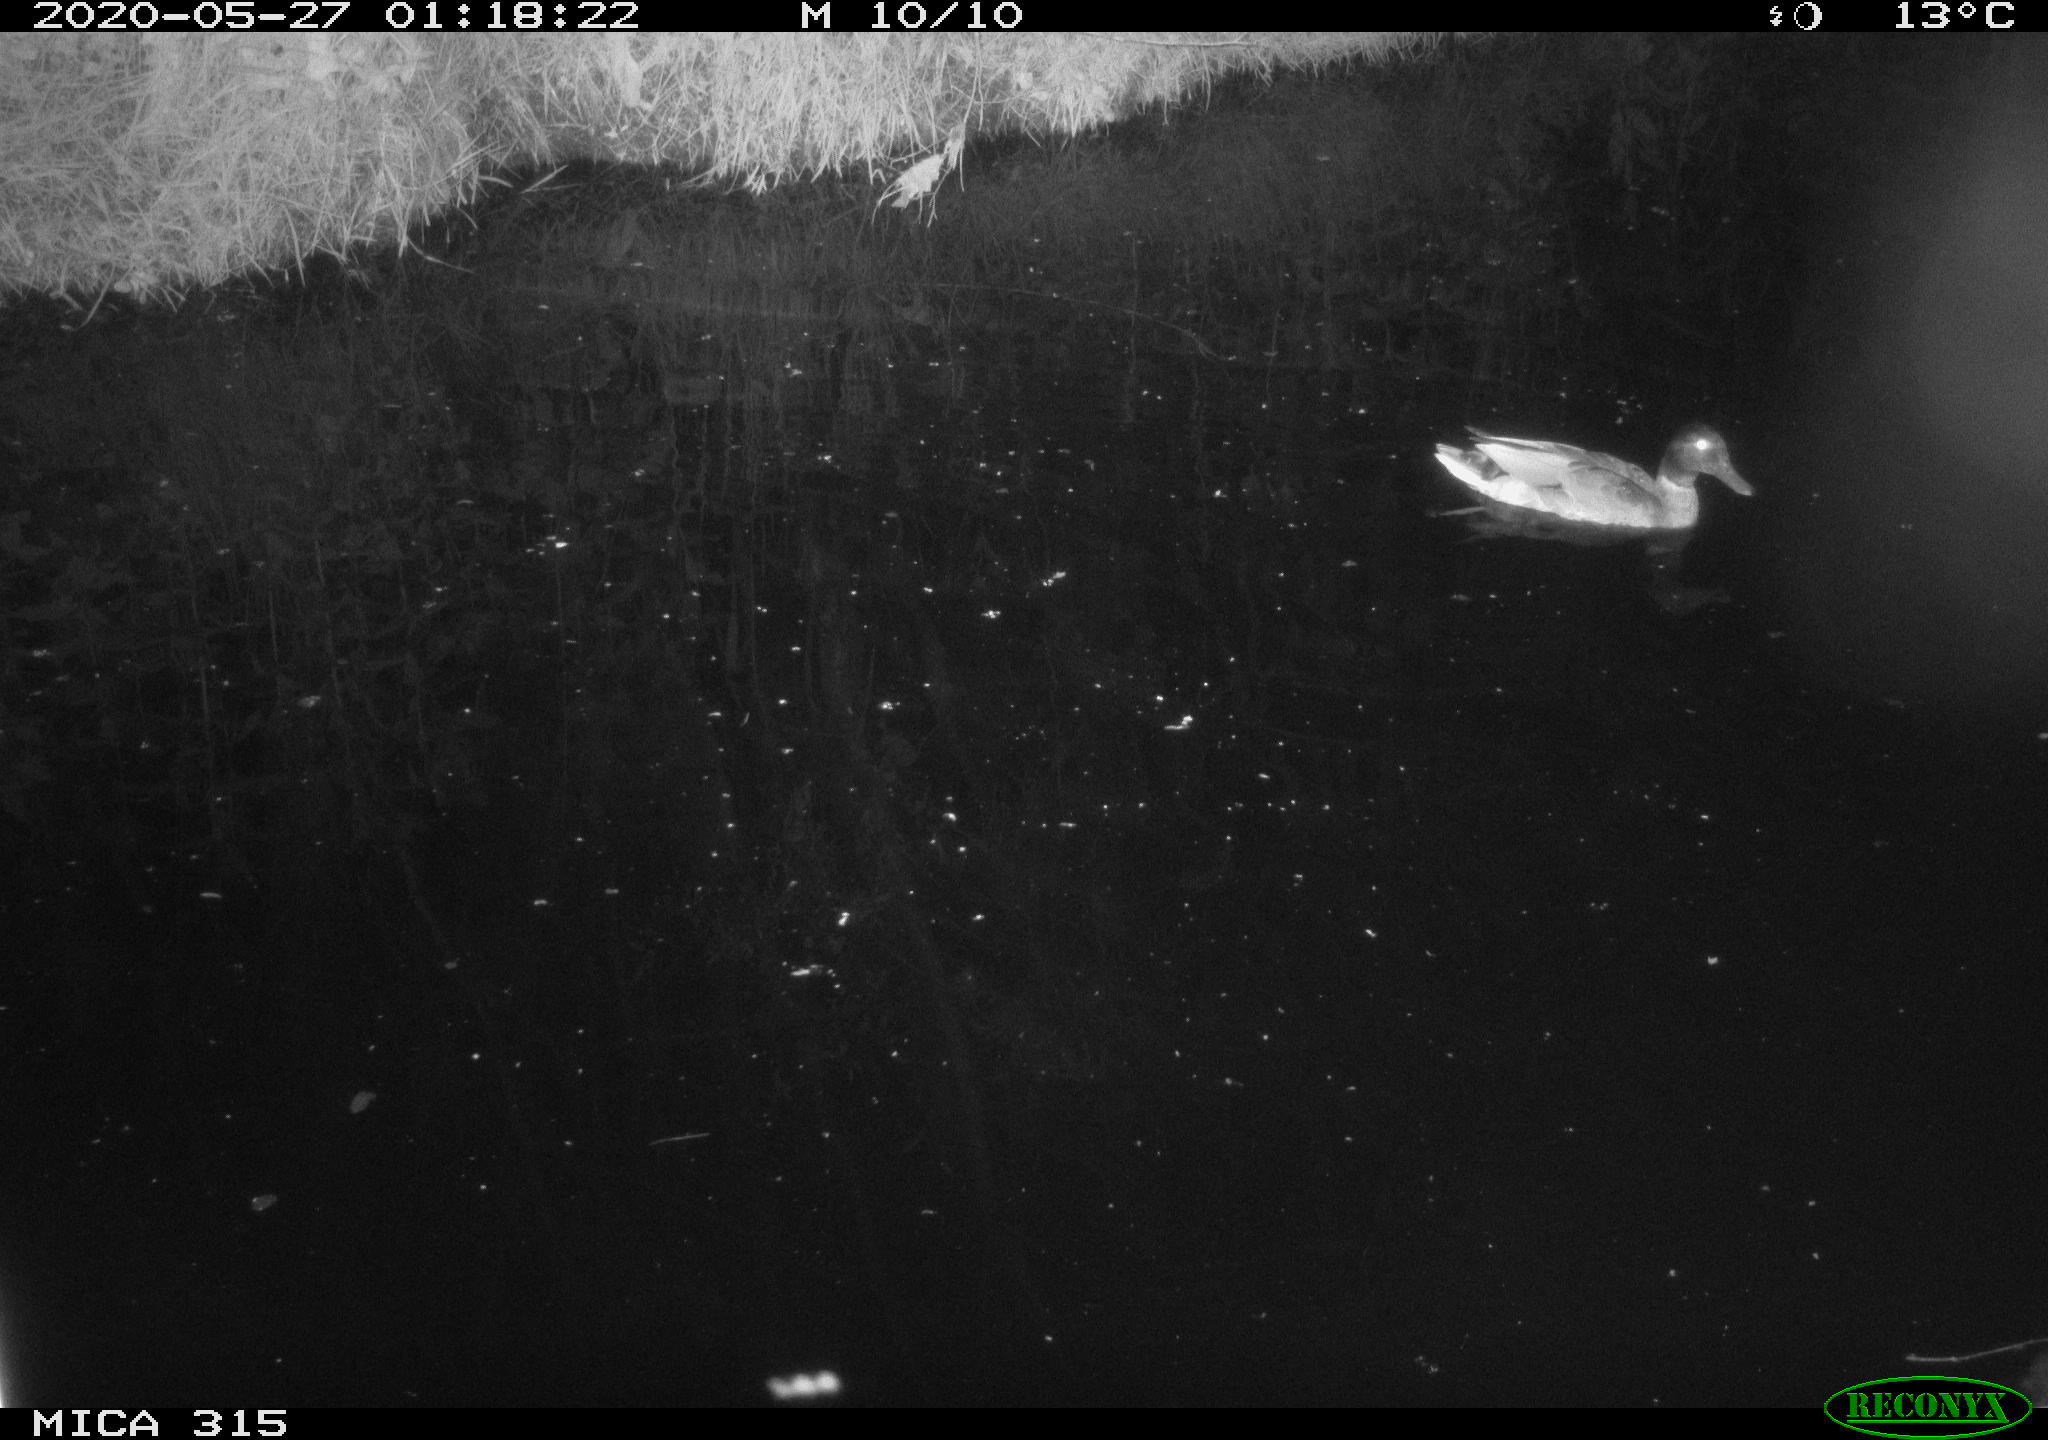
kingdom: Animalia
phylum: Chordata
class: Aves
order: Anseriformes
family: Anatidae
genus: Anas
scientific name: Anas platyrhynchos
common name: Mallard
